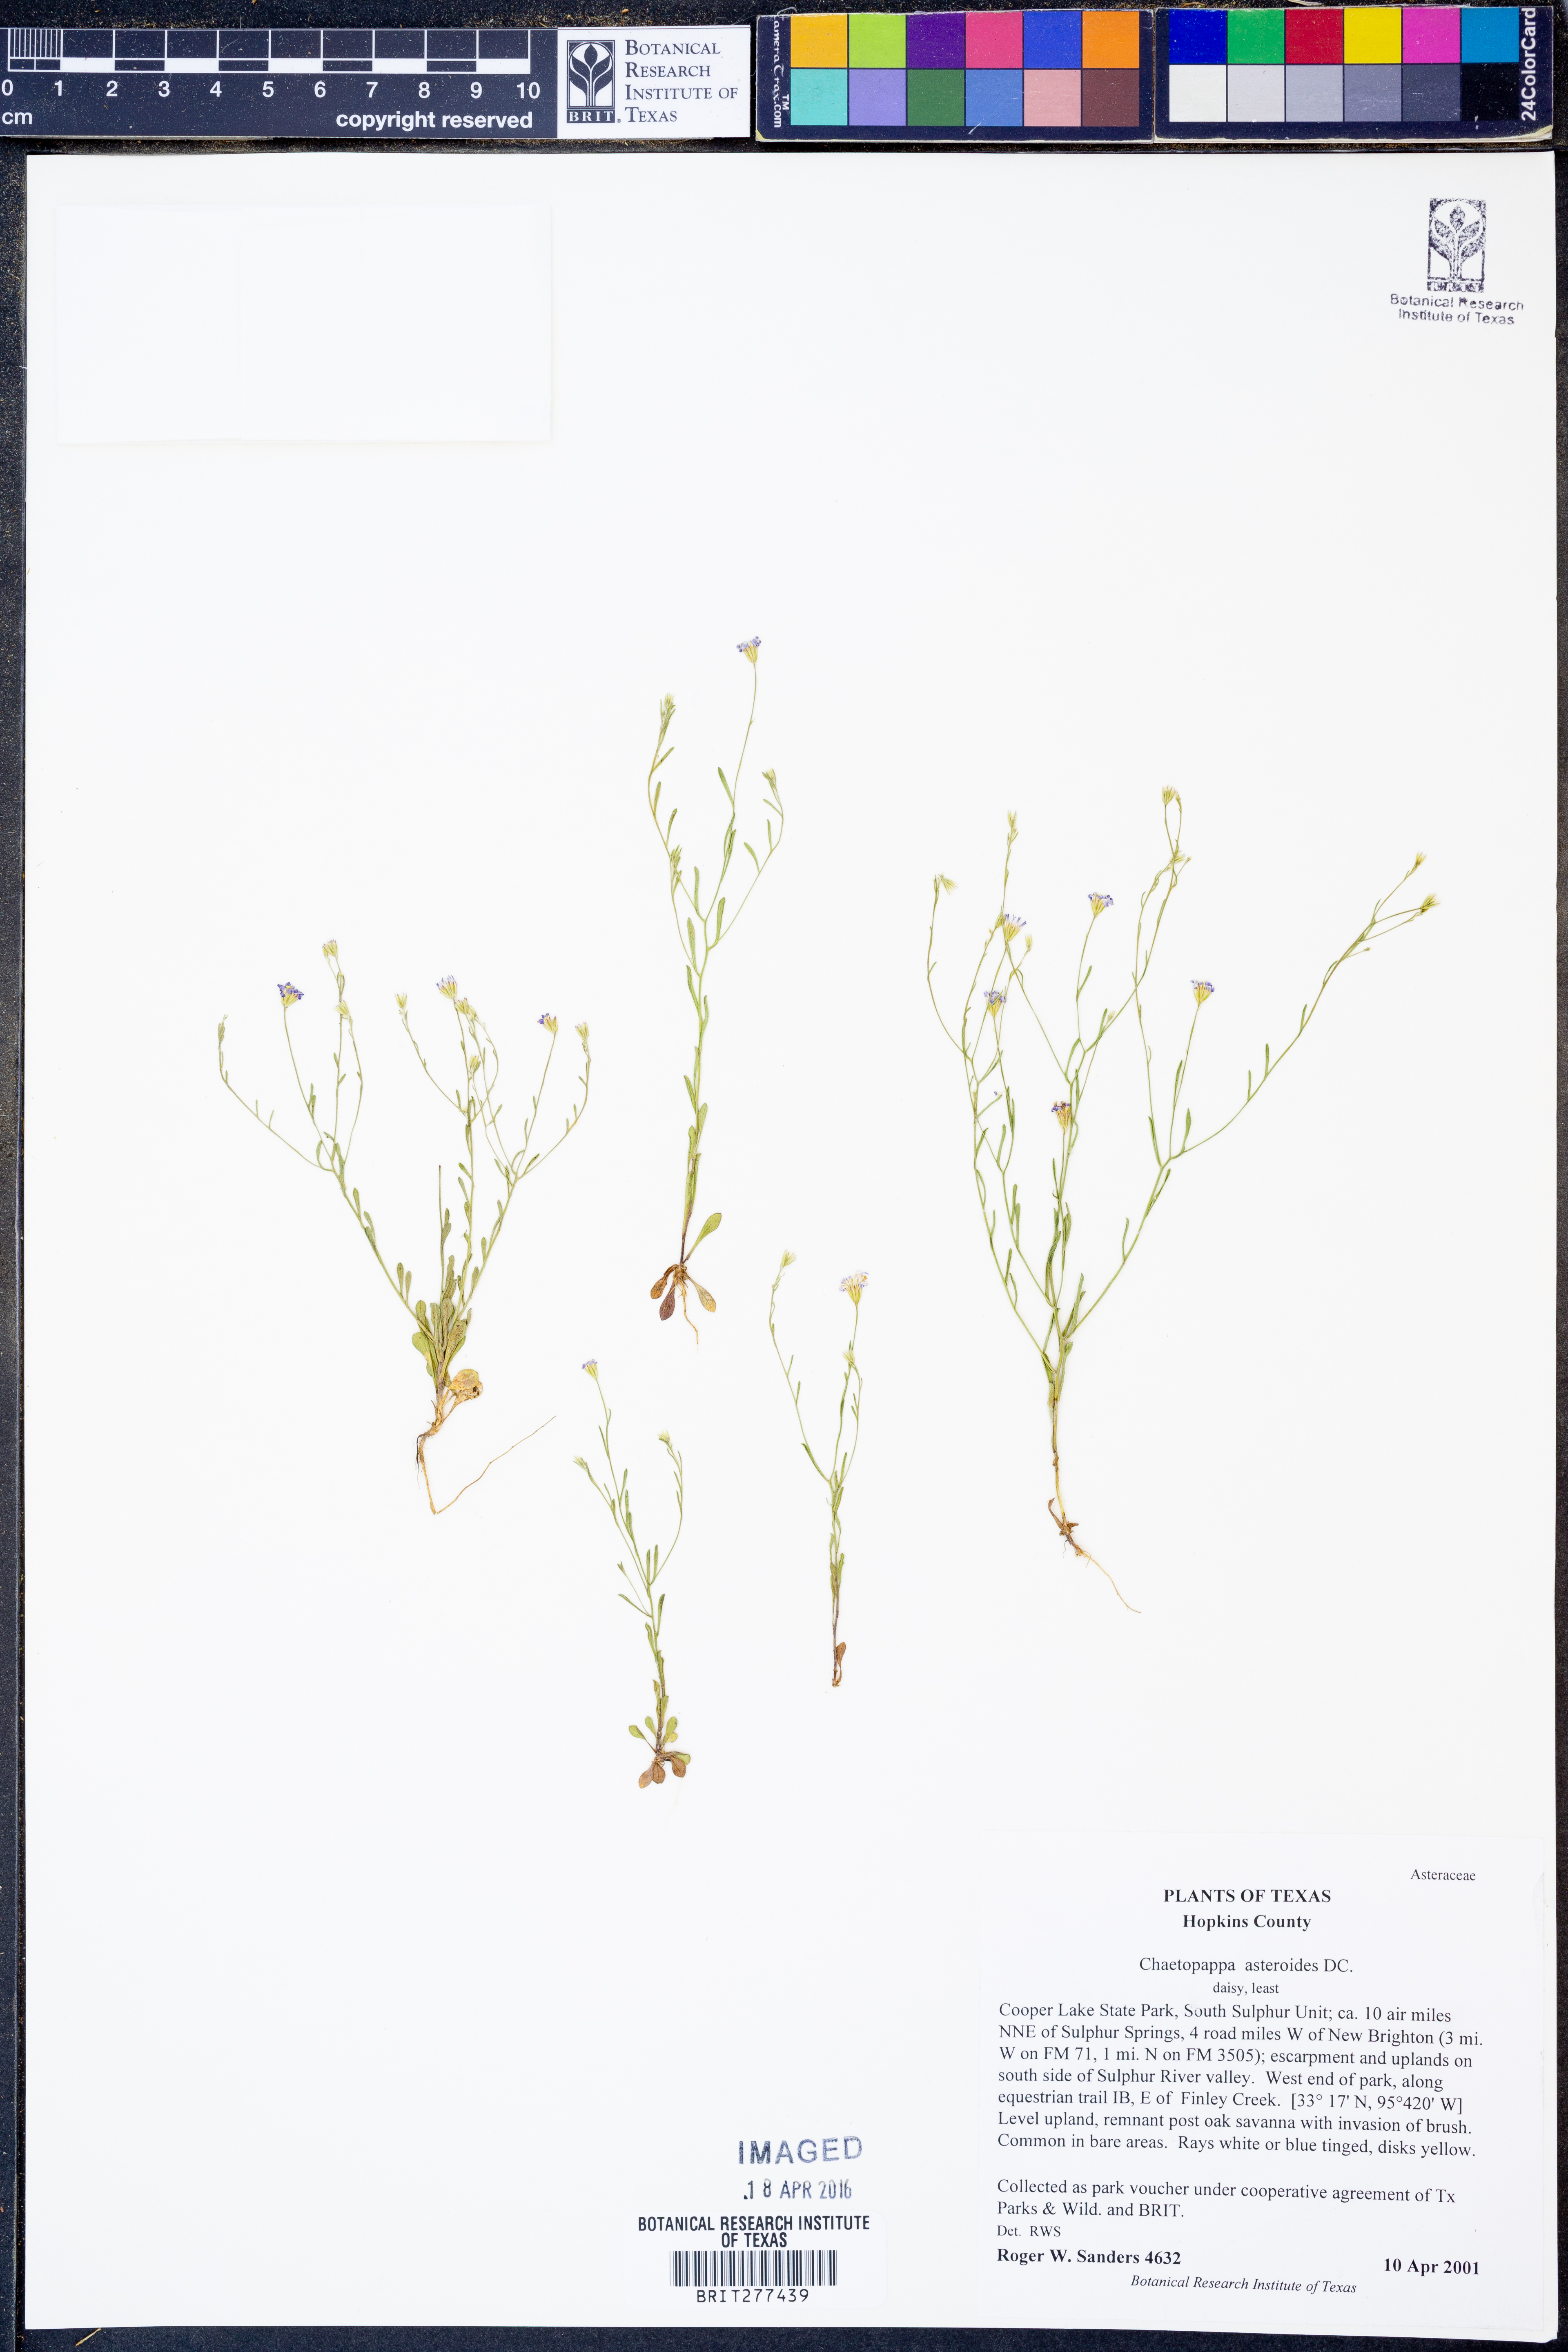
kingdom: Plantae
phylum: Tracheophyta
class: Magnoliopsida
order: Asterales
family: Asteraceae
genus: Chaetopappa
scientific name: Chaetopappa asteroides
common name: Tiny lazy daisy
